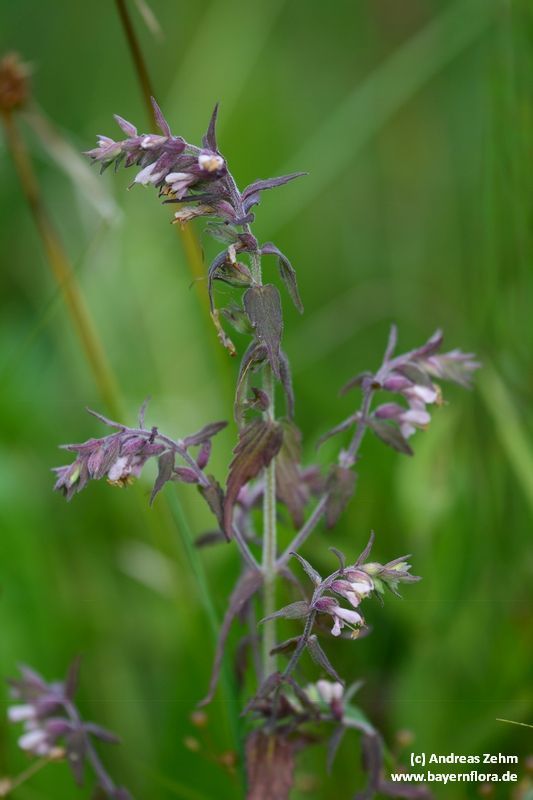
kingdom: Plantae
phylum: Tracheophyta
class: Magnoliopsida
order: Lamiales
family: Orobanchaceae
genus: Odontites
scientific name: Odontites
